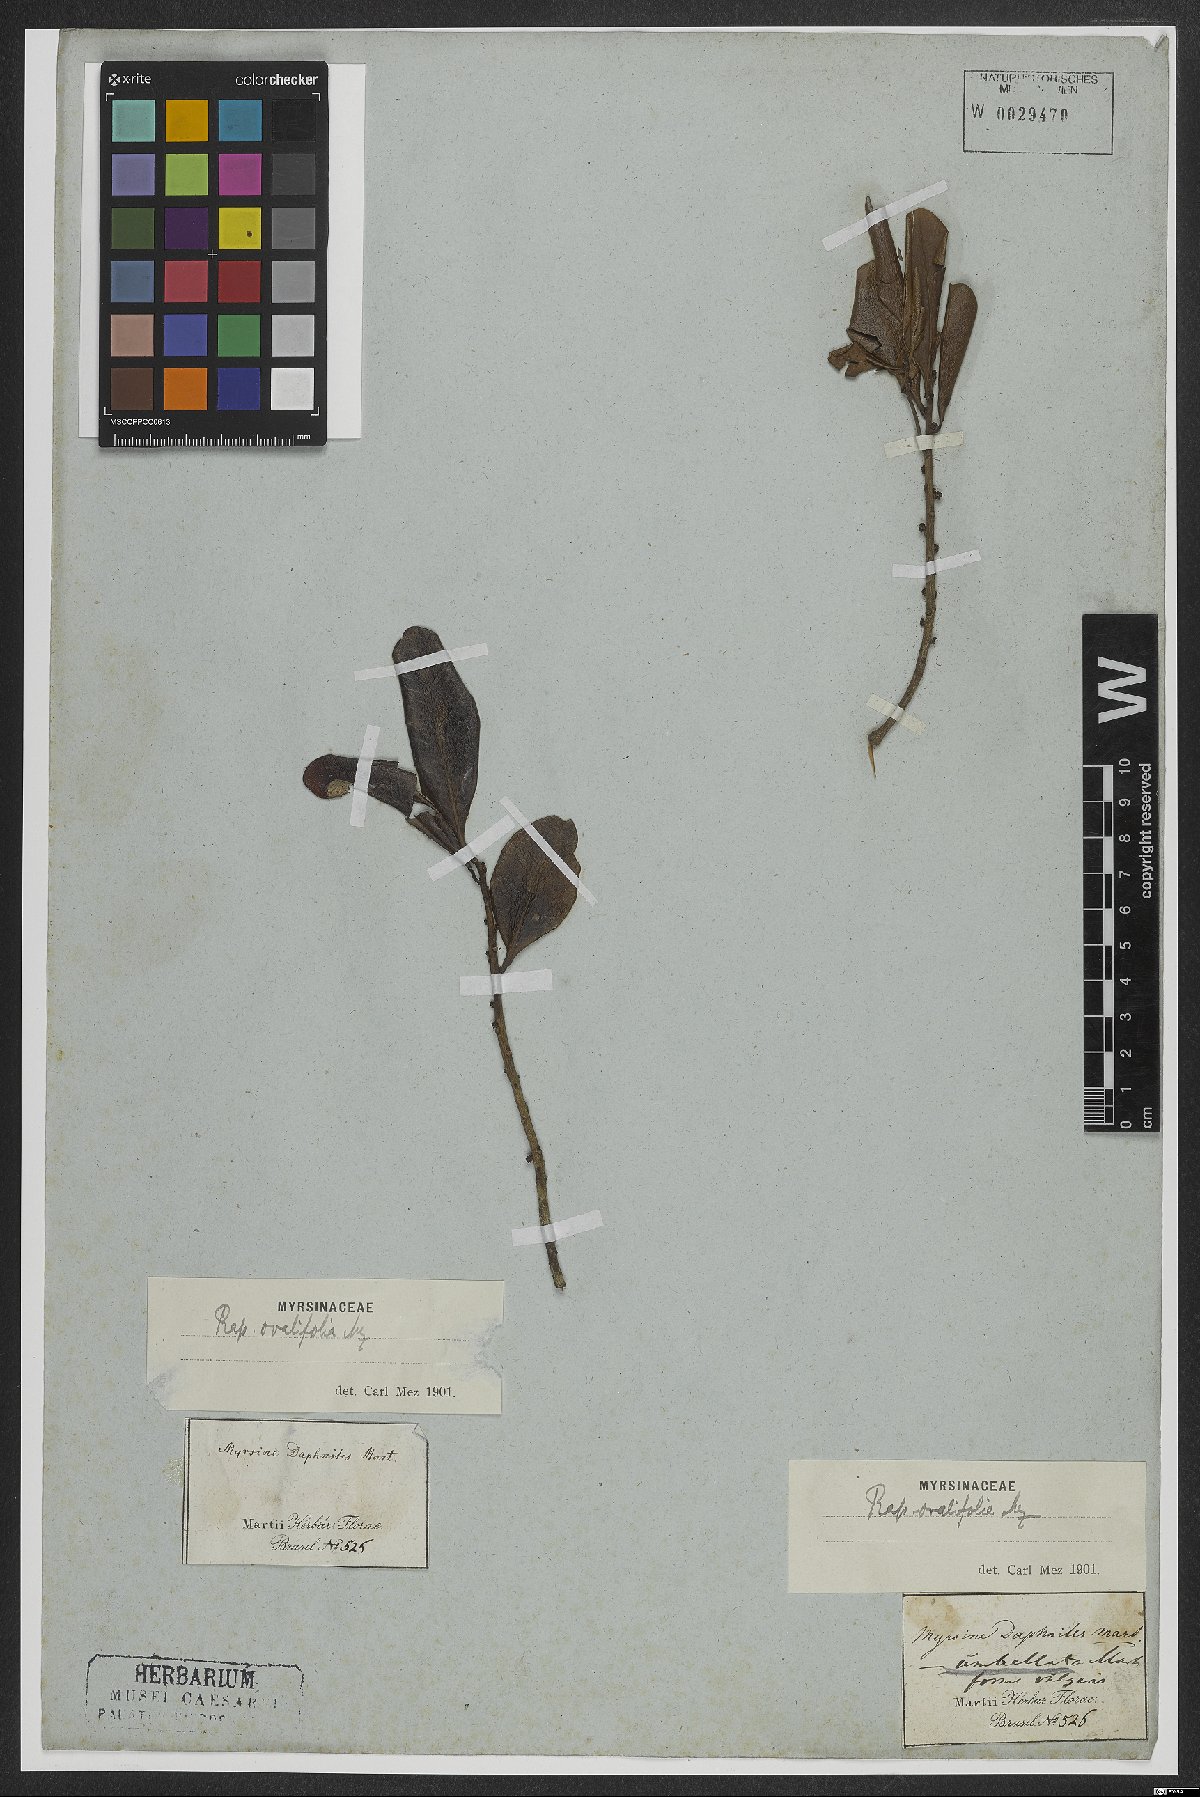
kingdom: Plantae
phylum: Tracheophyta
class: Magnoliopsida
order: Ericales
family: Primulaceae
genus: Myrsine
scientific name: Myrsine miquelii
